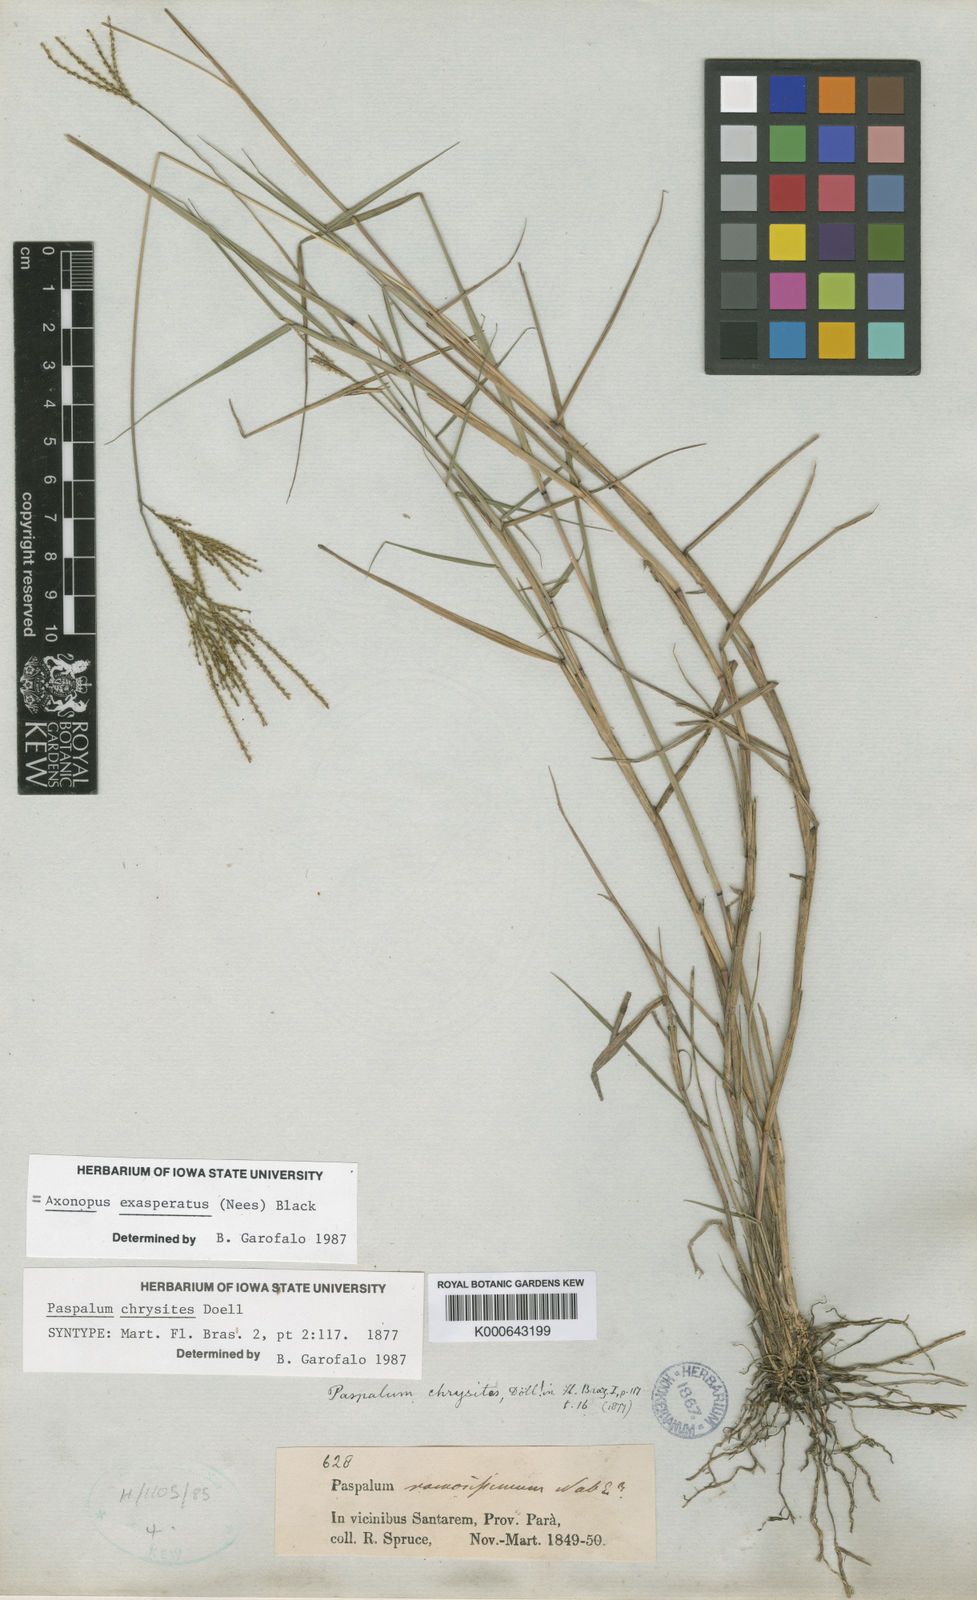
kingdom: Plantae
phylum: Tracheophyta
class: Liliopsida
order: Poales
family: Poaceae
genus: Axonopus
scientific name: Axonopus aureus
